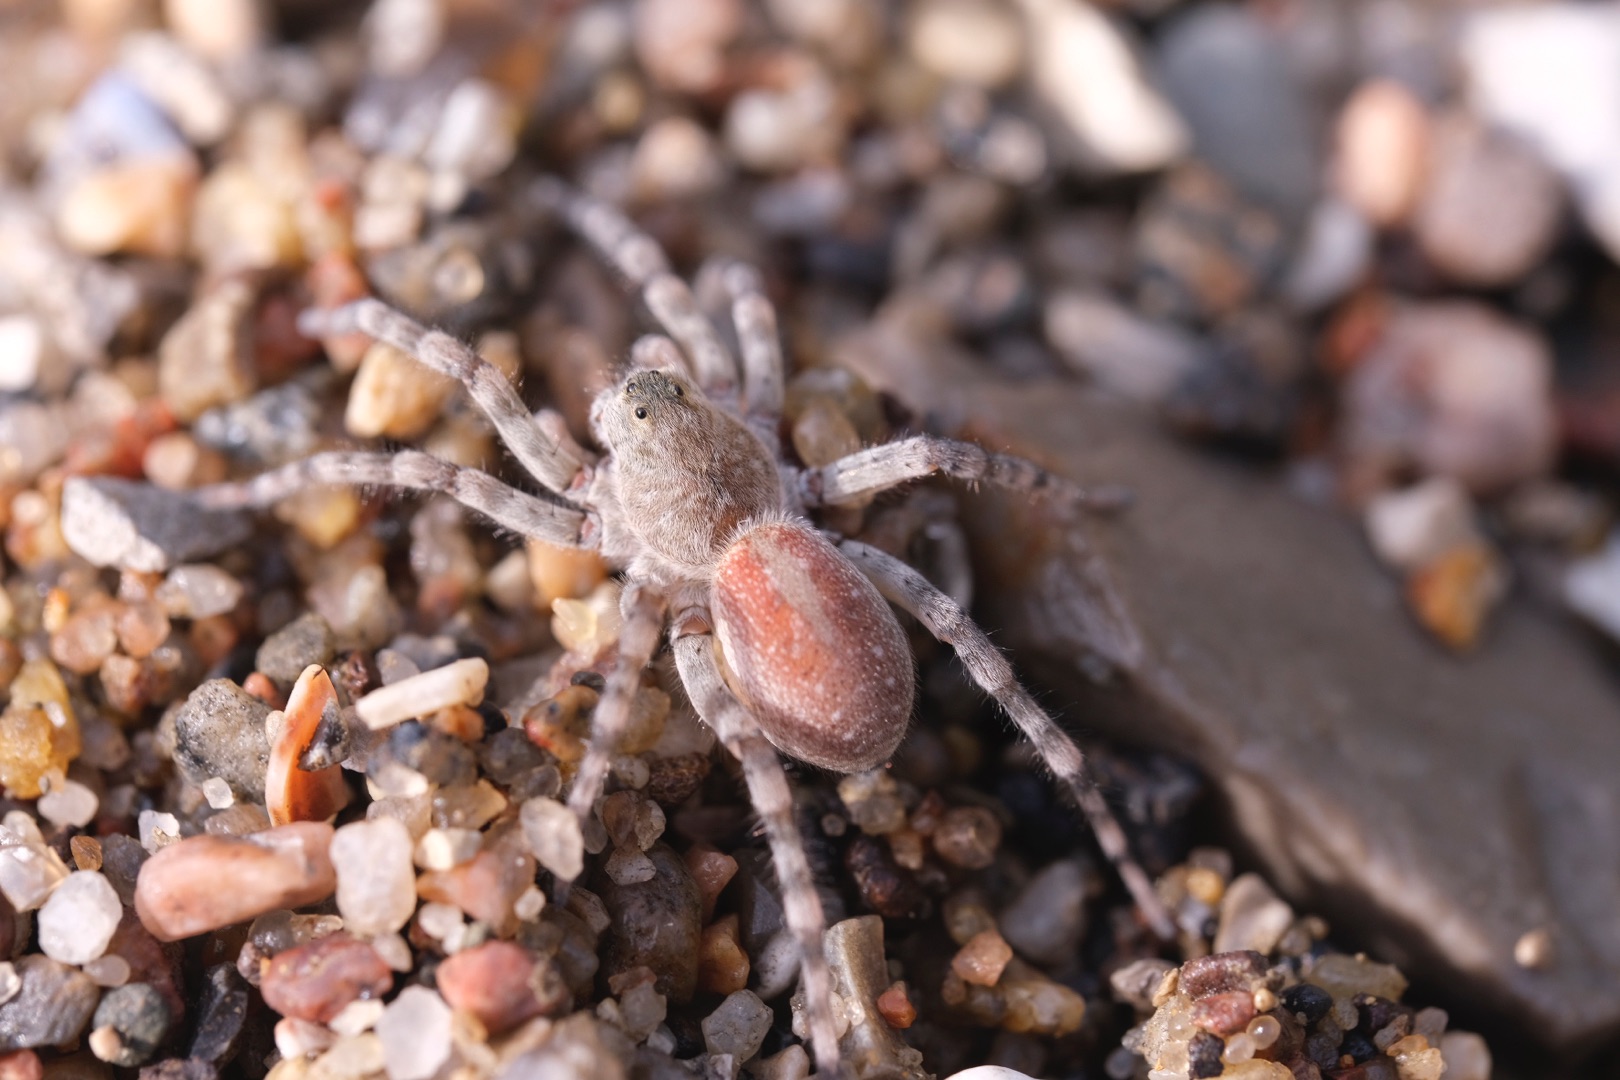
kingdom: Animalia
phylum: Arthropoda
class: Arachnida
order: Araneae
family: Lycosidae
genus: Arctosa
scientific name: Arctosa cinerea
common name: Sandgraveedderkop
